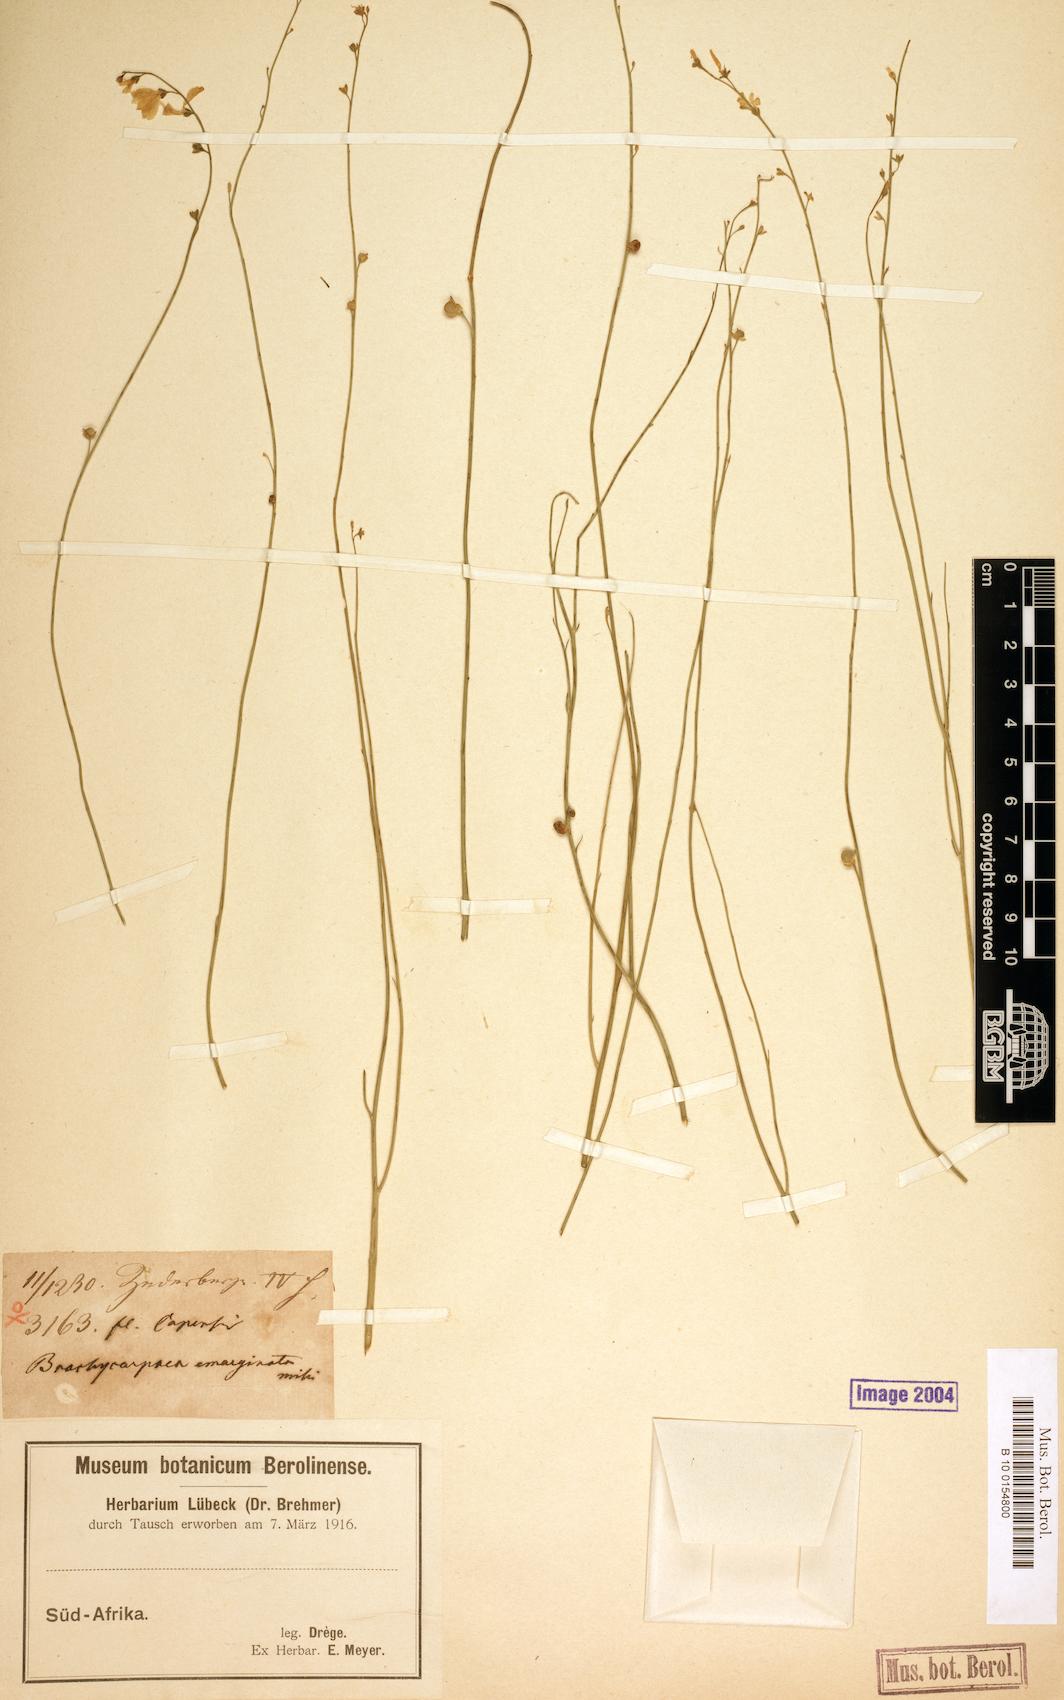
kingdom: Plantae
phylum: Tracheophyta
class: Magnoliopsida
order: Brassicales
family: Brassicaceae
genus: Heliophila
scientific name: Heliophila juncea
